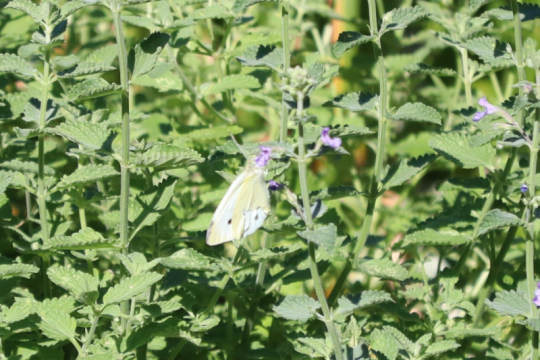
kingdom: Animalia
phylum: Arthropoda
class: Insecta
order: Lepidoptera
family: Pieridae
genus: Pieris
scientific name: Pieris rapae
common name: Cabbage White
